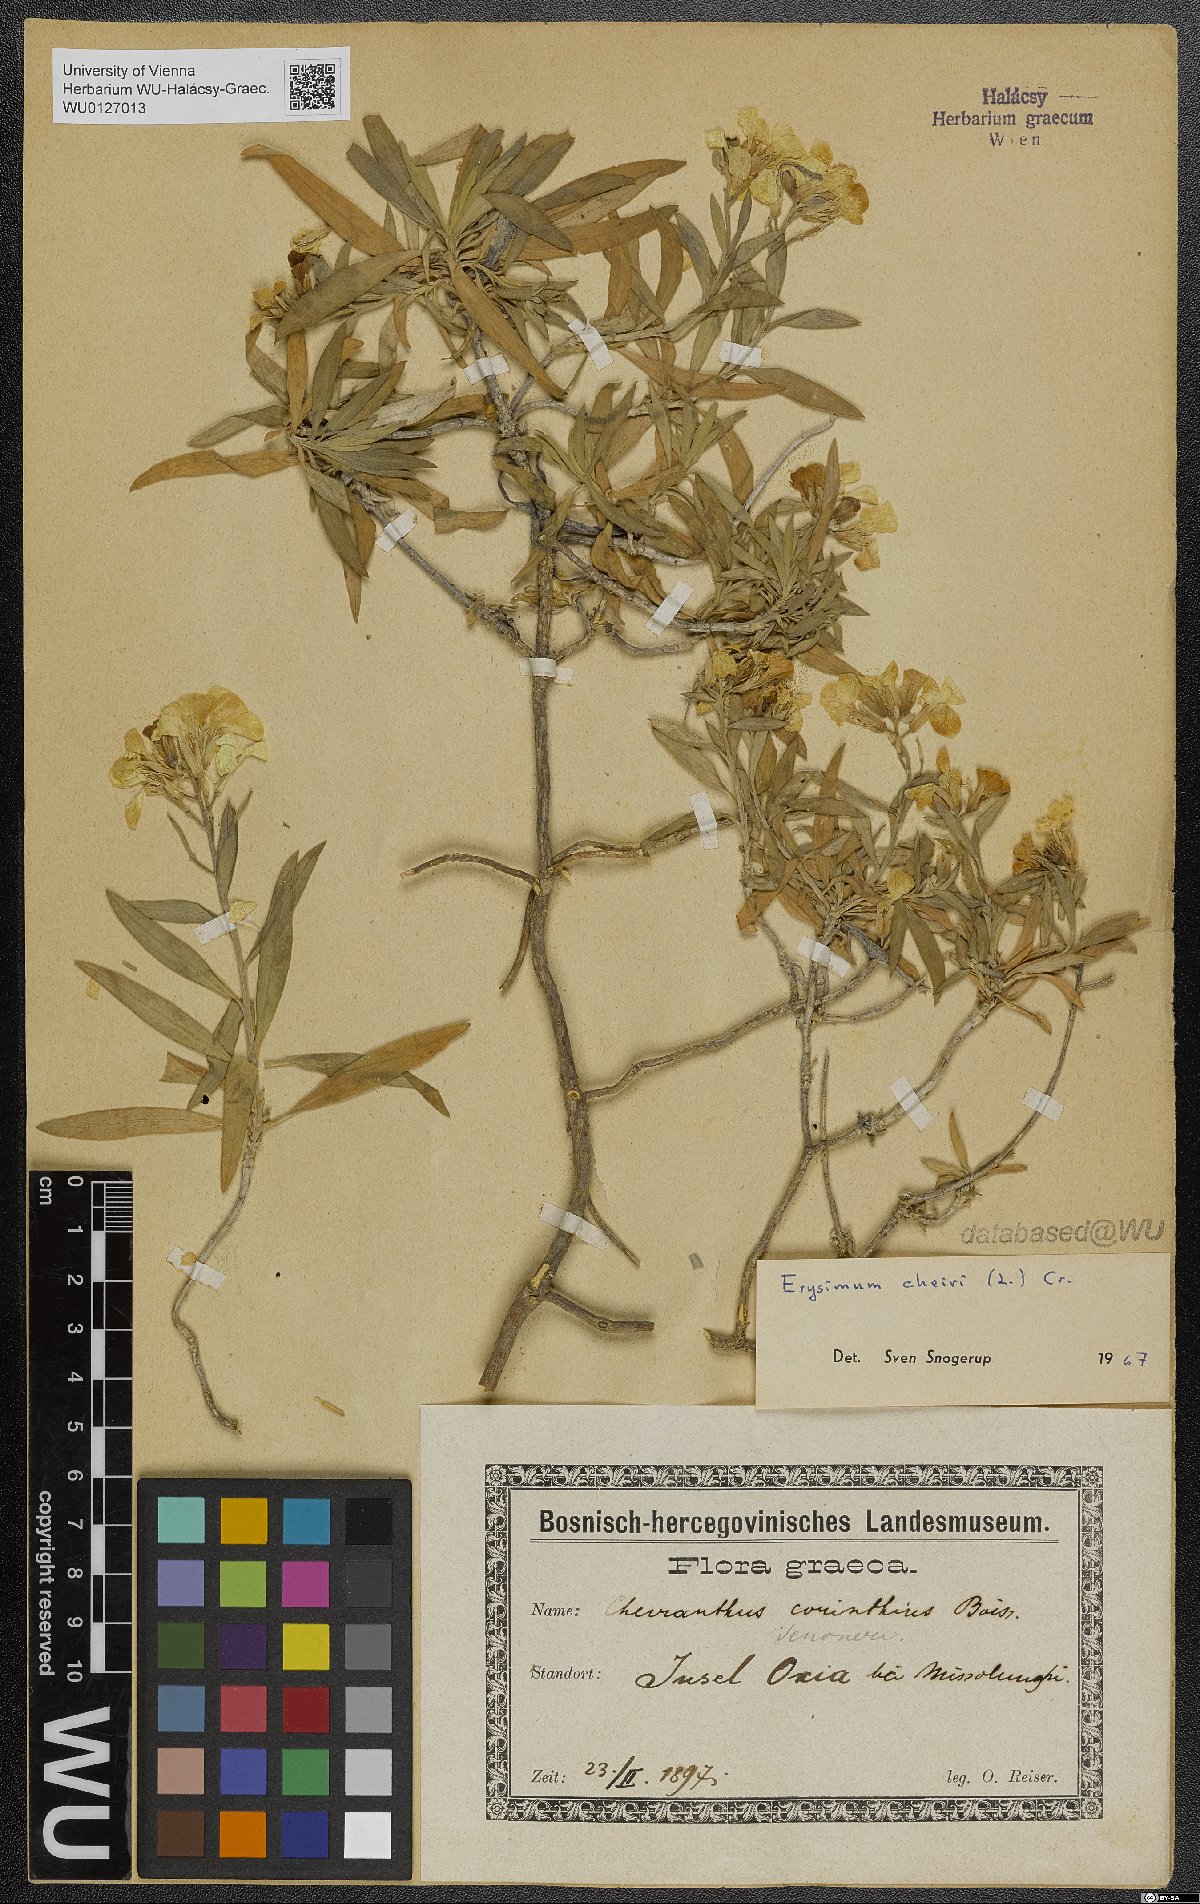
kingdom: Plantae
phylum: Tracheophyta
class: Magnoliopsida
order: Brassicales
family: Brassicaceae
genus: Erysimum
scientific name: Erysimum cheiri
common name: Wallflower
